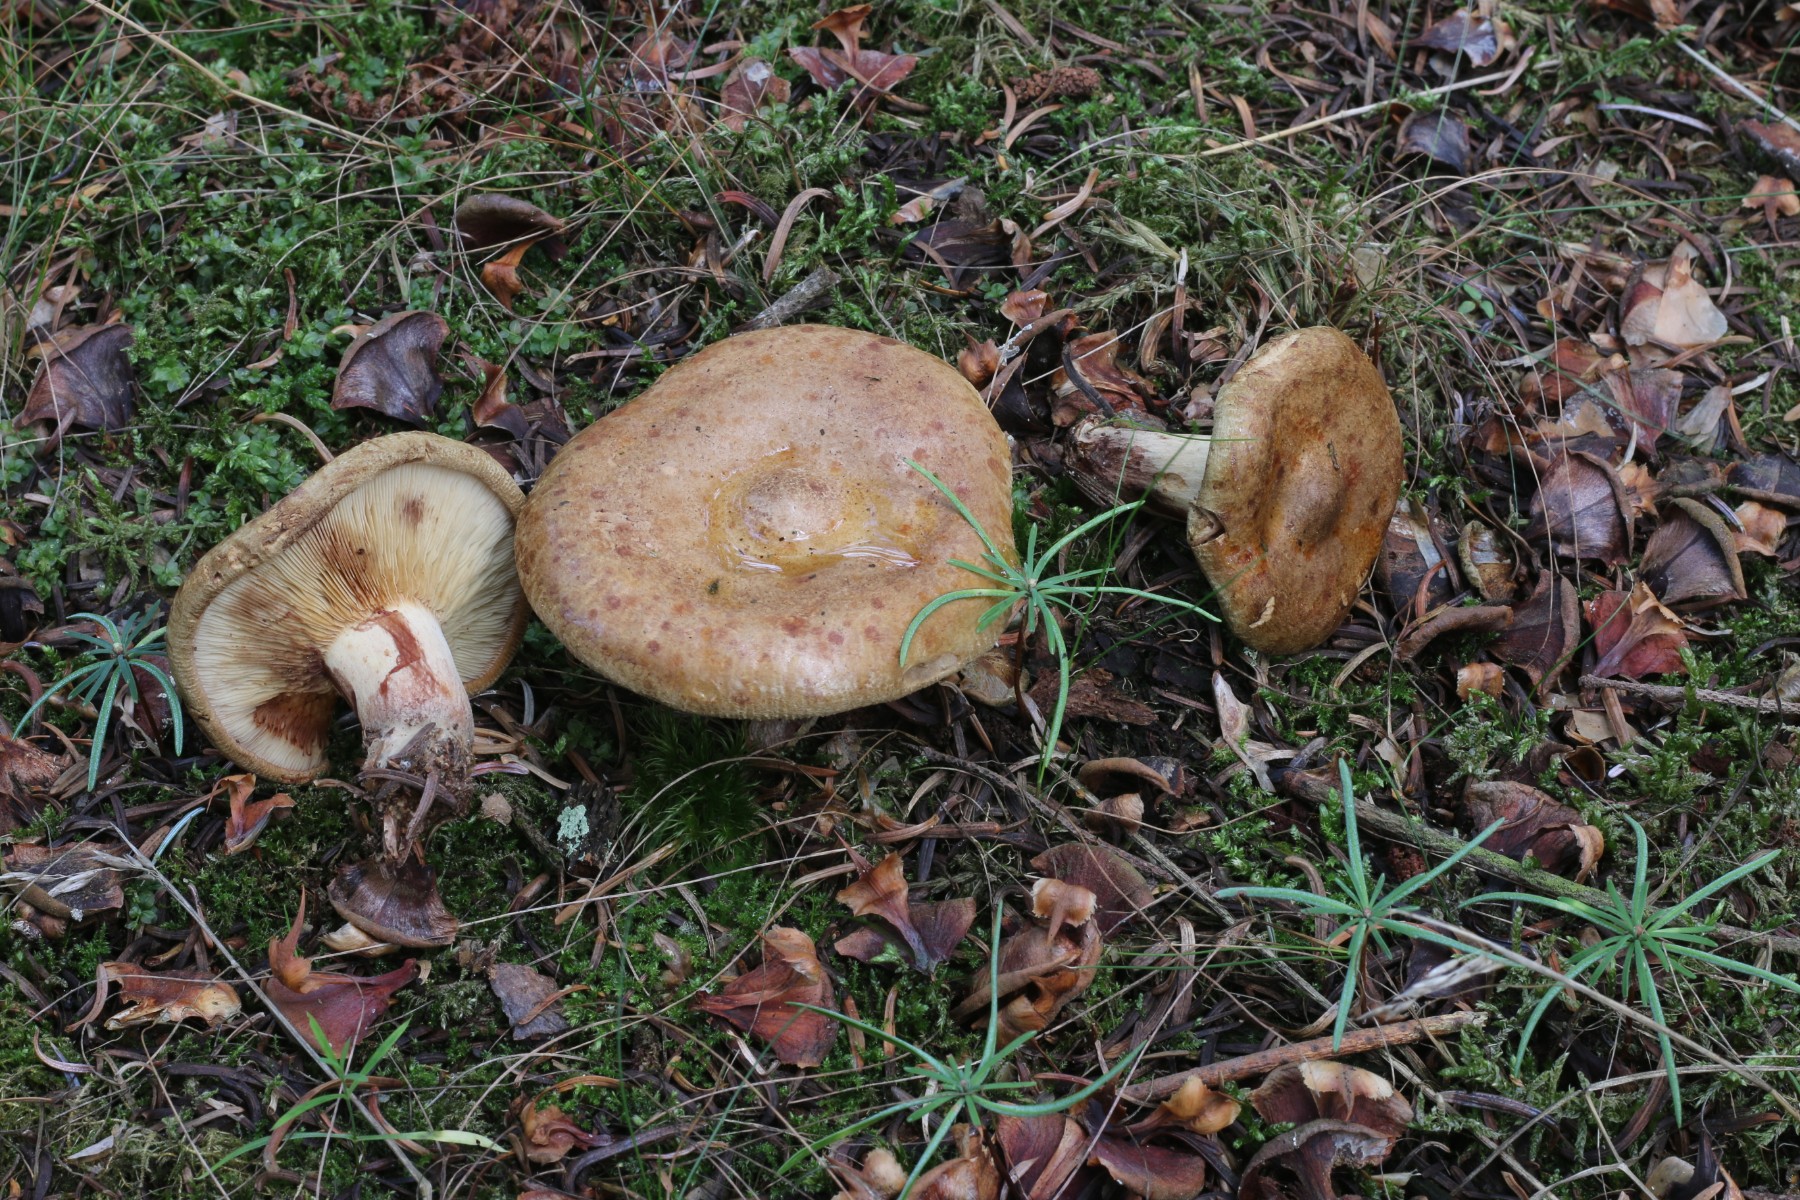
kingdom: Fungi
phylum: Basidiomycota
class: Agaricomycetes
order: Boletales
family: Paxillaceae
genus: Paxillus
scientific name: Paxillus involutus
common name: almindelig netbladhat
